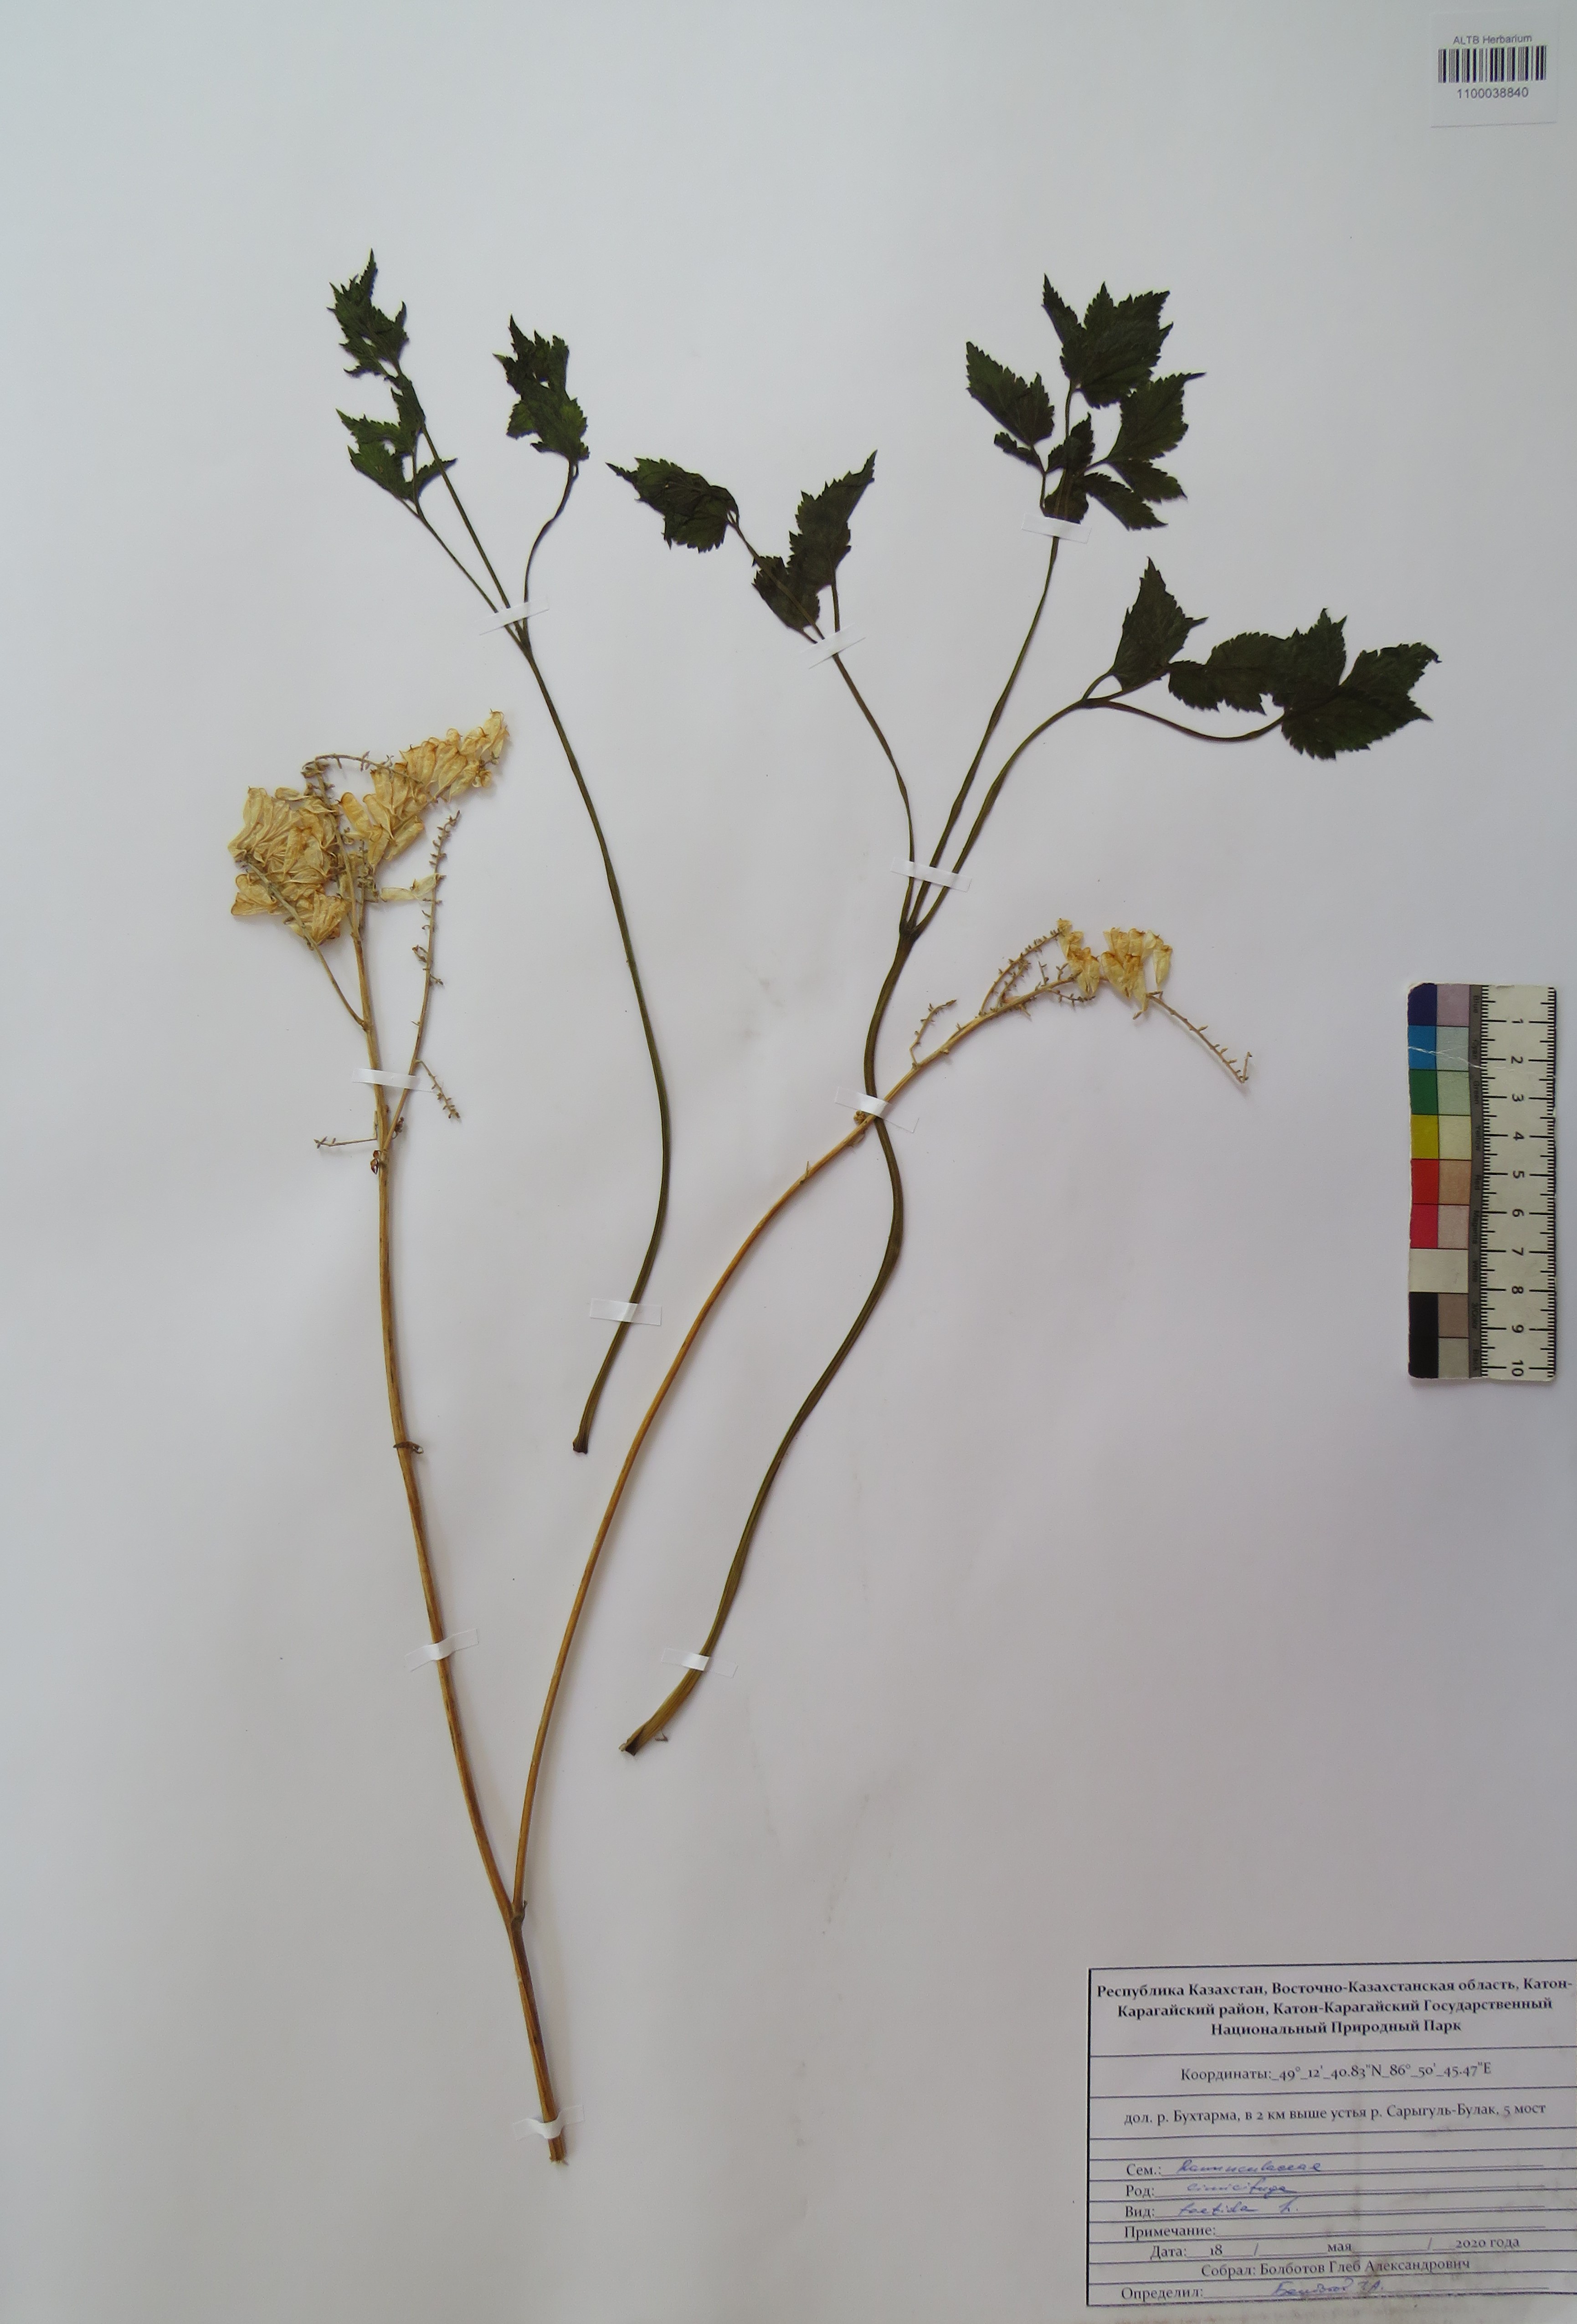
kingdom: Plantae
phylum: Tracheophyta
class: Magnoliopsida
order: Ranunculales
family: Ranunculaceae
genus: Actaea
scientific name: Actaea cimicifuga
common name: Chinese cimicifuga
